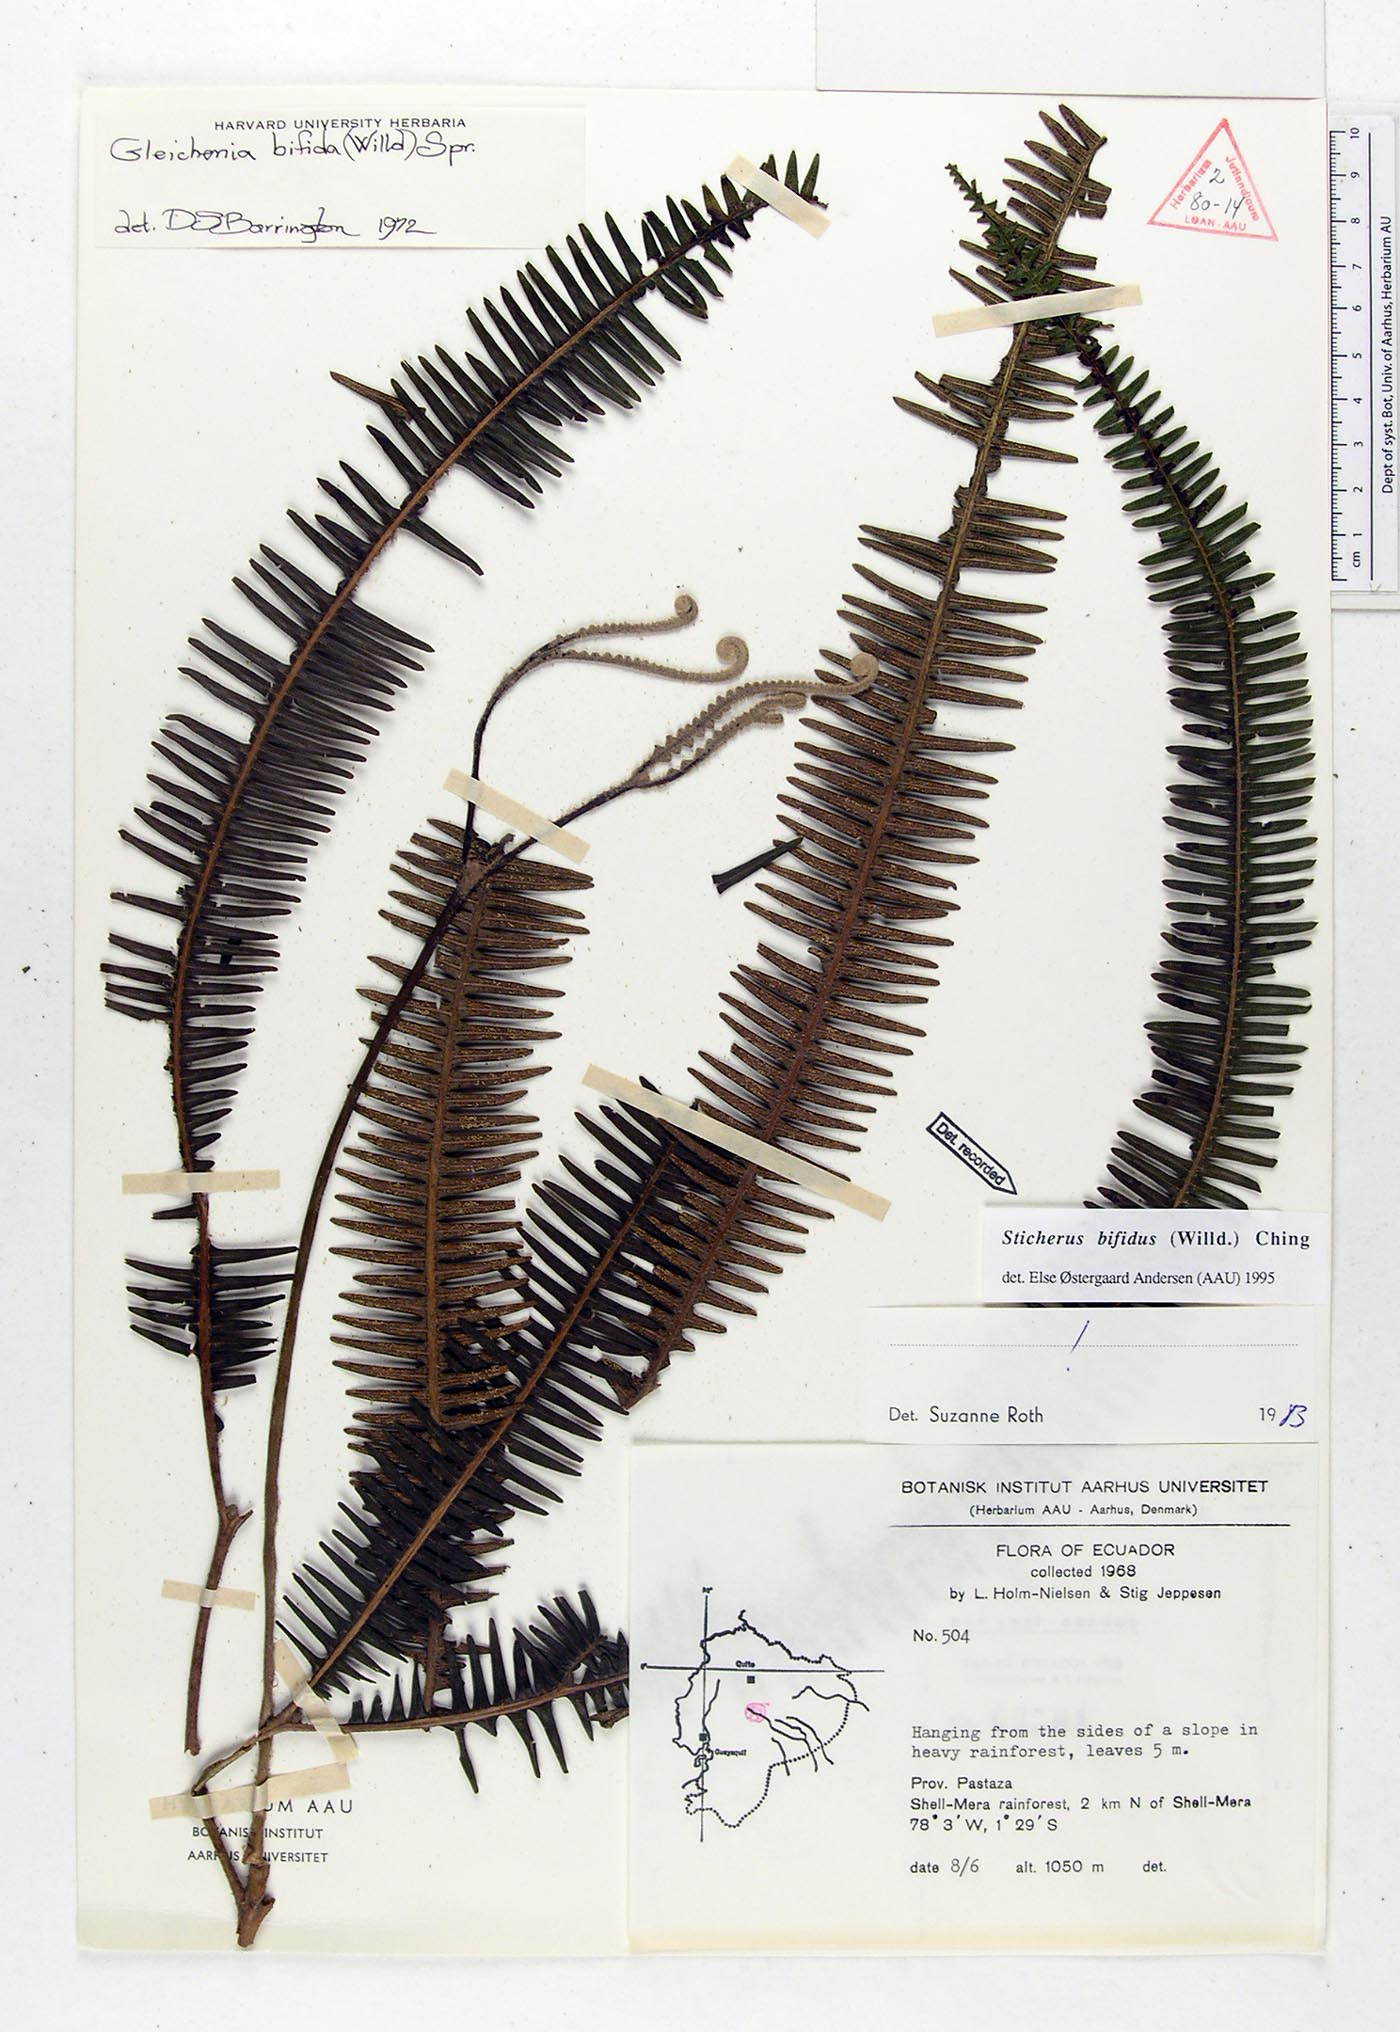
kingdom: Plantae
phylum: Tracheophyta
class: Polypodiopsida
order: Gleicheniales
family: Gleicheniaceae
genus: Sticherus
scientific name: Sticherus bifidus
